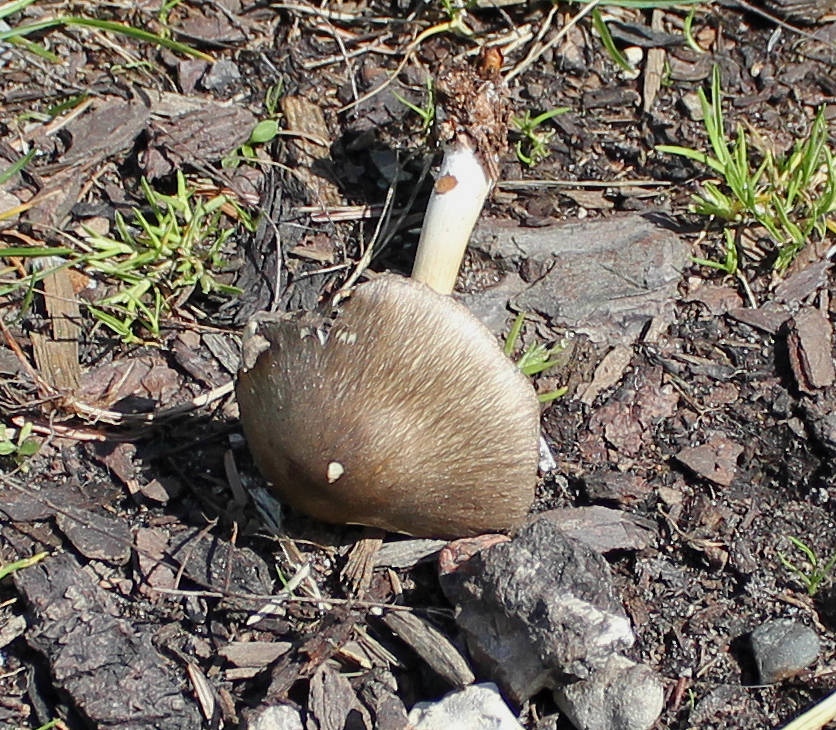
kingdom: Fungi
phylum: Basidiomycota
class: Agaricomycetes
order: Agaricales
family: Tricholomataceae
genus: Megacollybia
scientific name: Megacollybia platyphylla
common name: bredbladet væbnerhat
